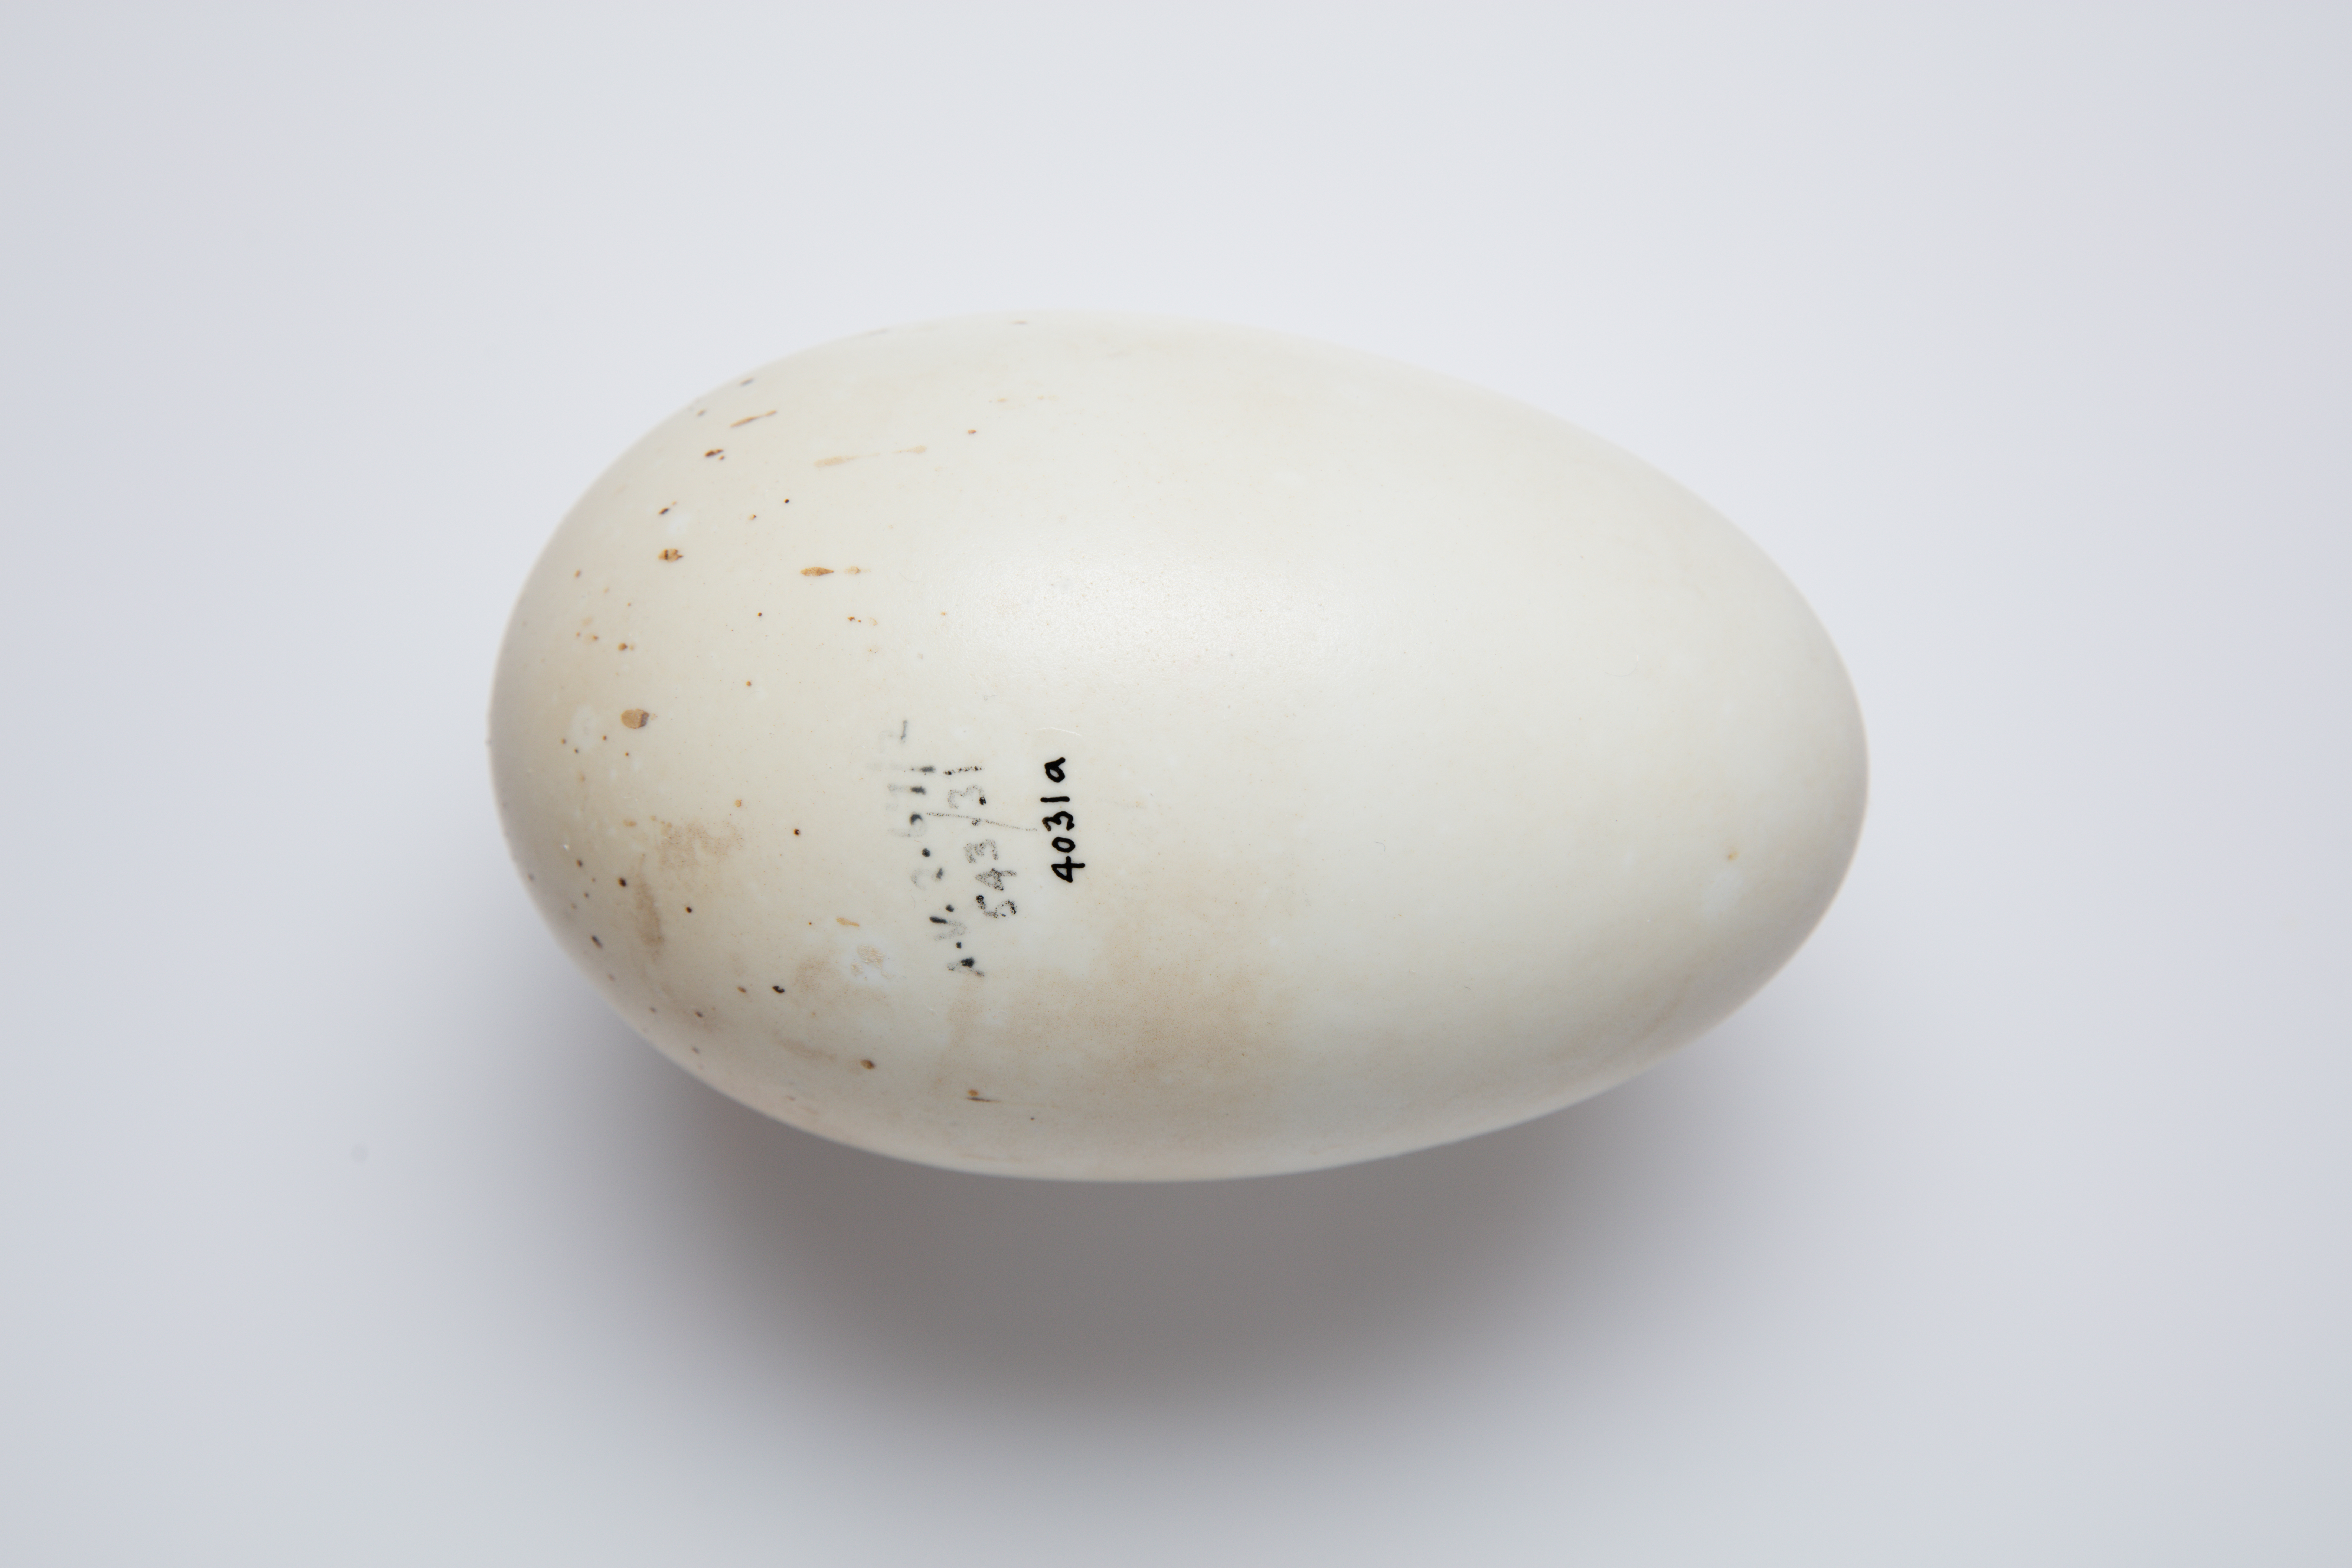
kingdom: Animalia
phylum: Chordata
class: Aves
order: Apterygiformes
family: Apterygidae
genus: Apteryx
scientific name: Apteryx mantelli
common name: North island brown kiwi
